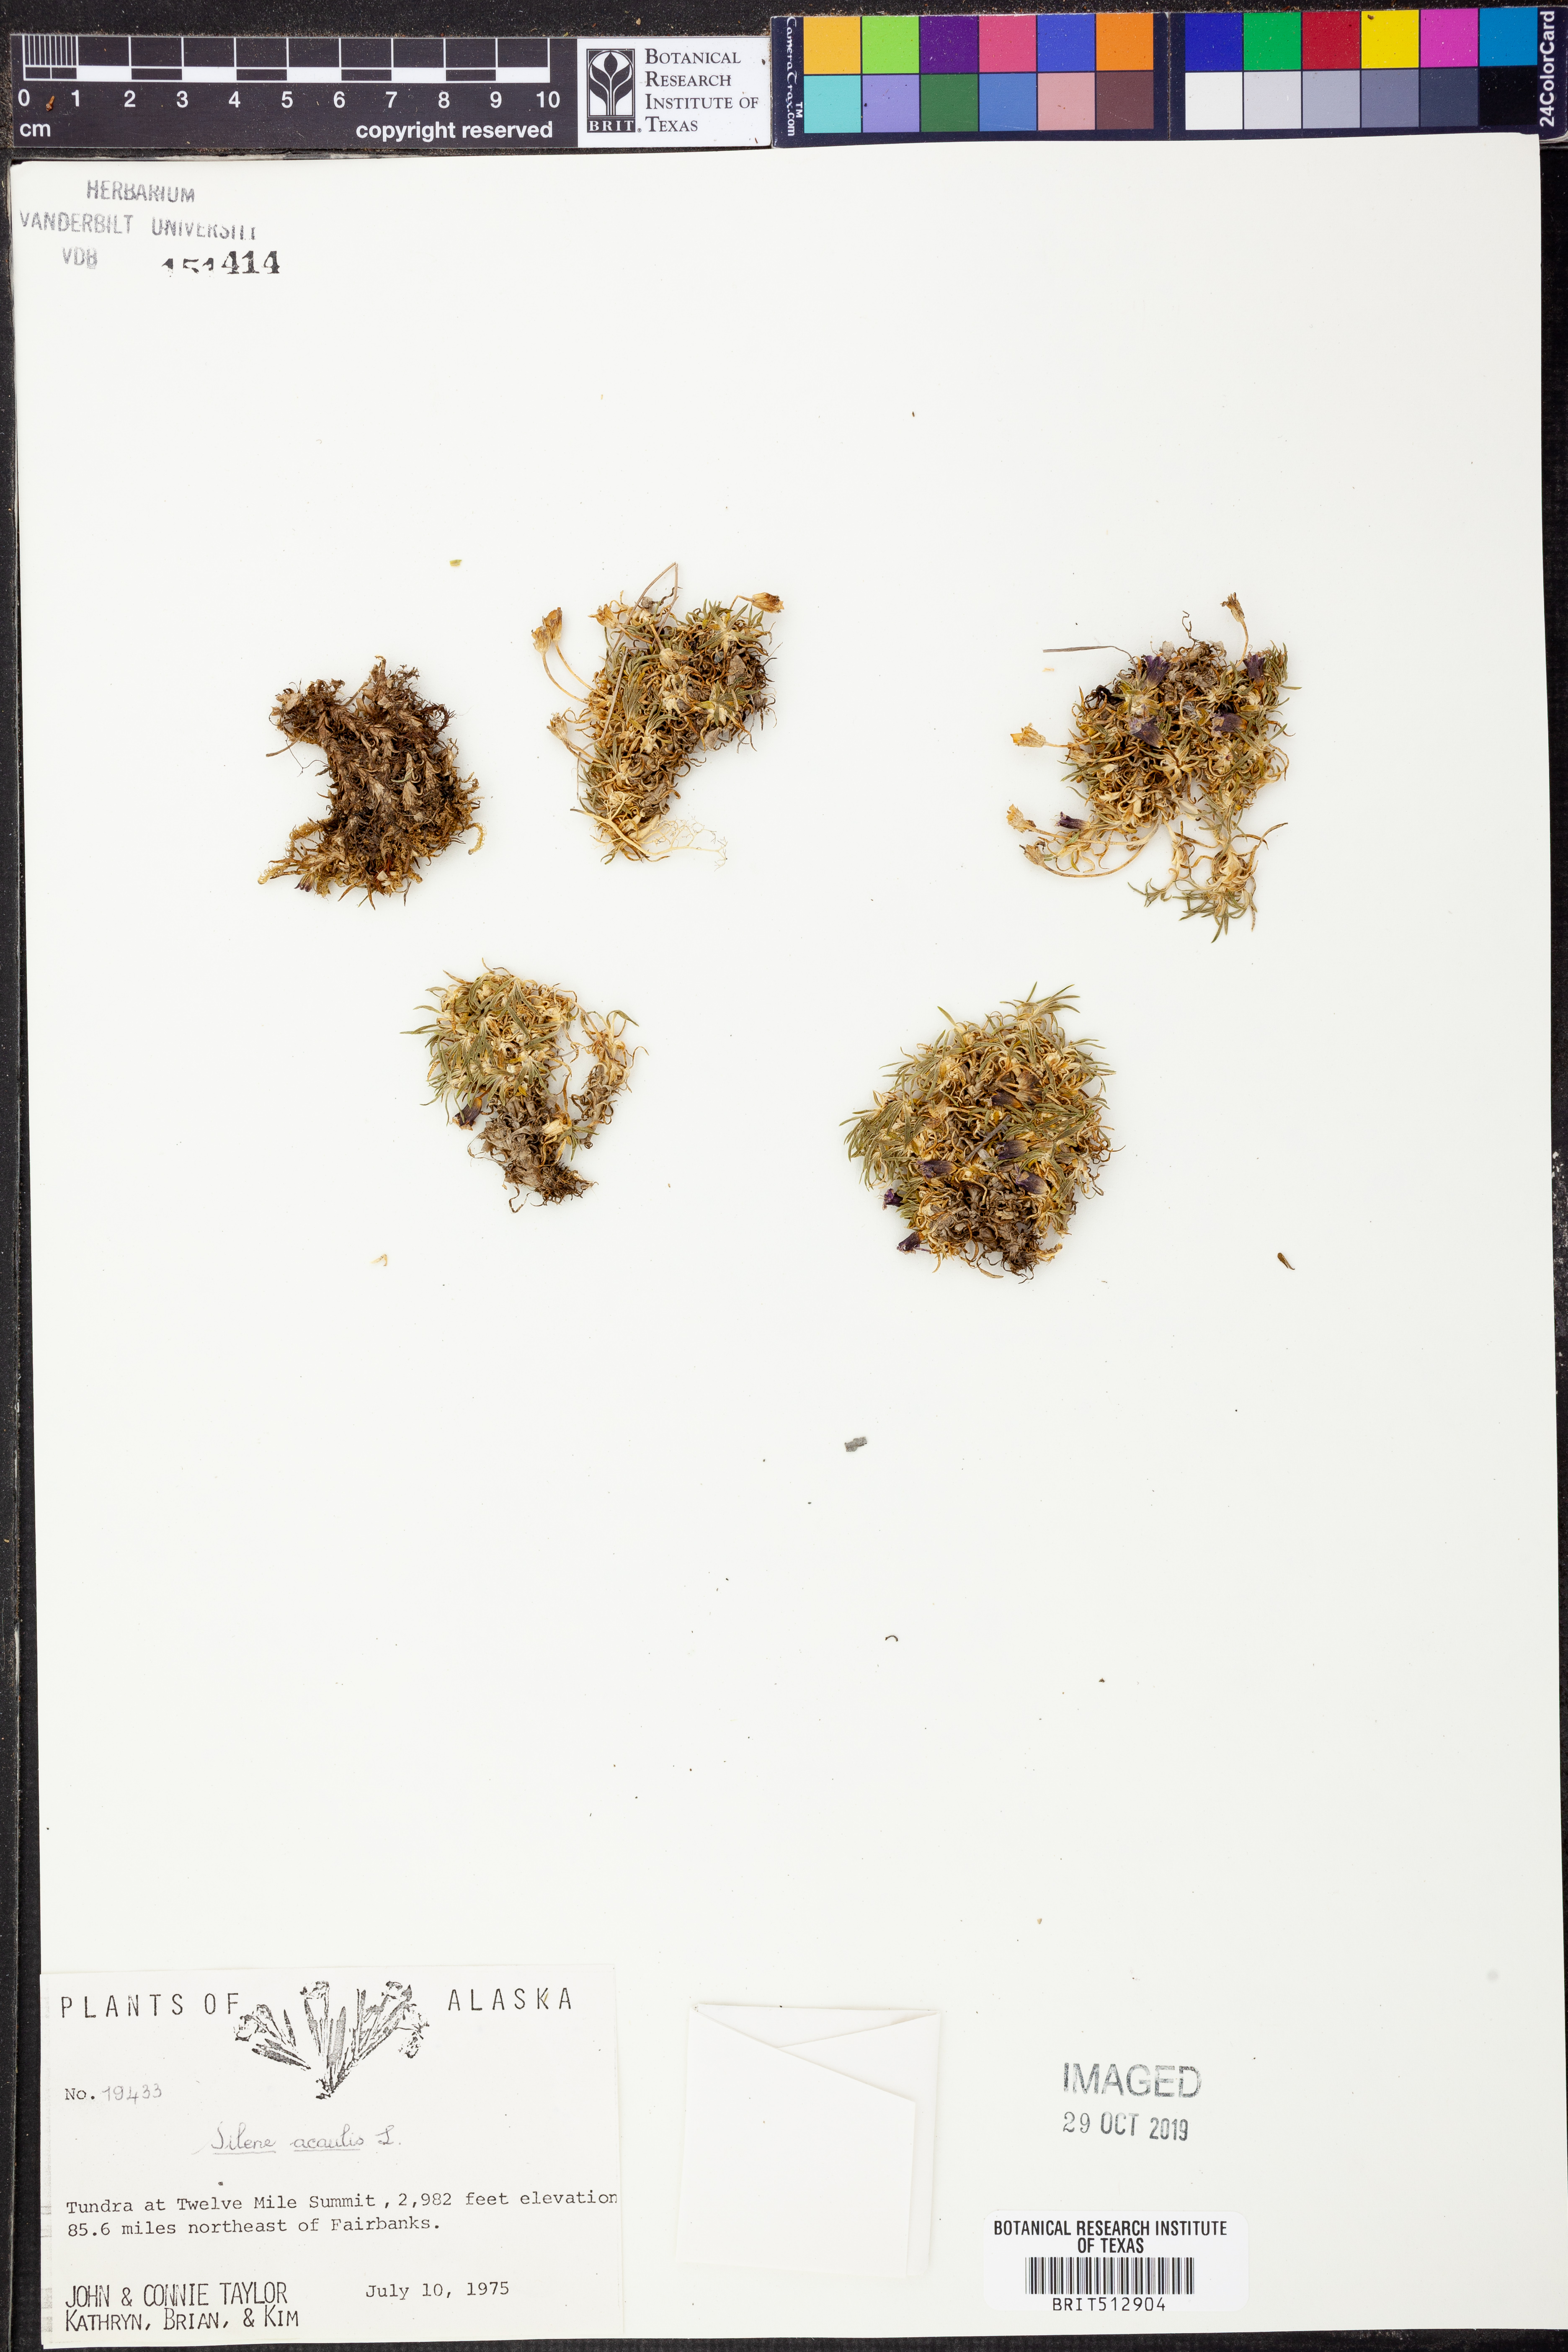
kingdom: Plantae
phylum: Tracheophyta
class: Magnoliopsida
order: Caryophyllales
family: Caryophyllaceae
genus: Silene
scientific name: Silene acaulis
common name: Moss campion
